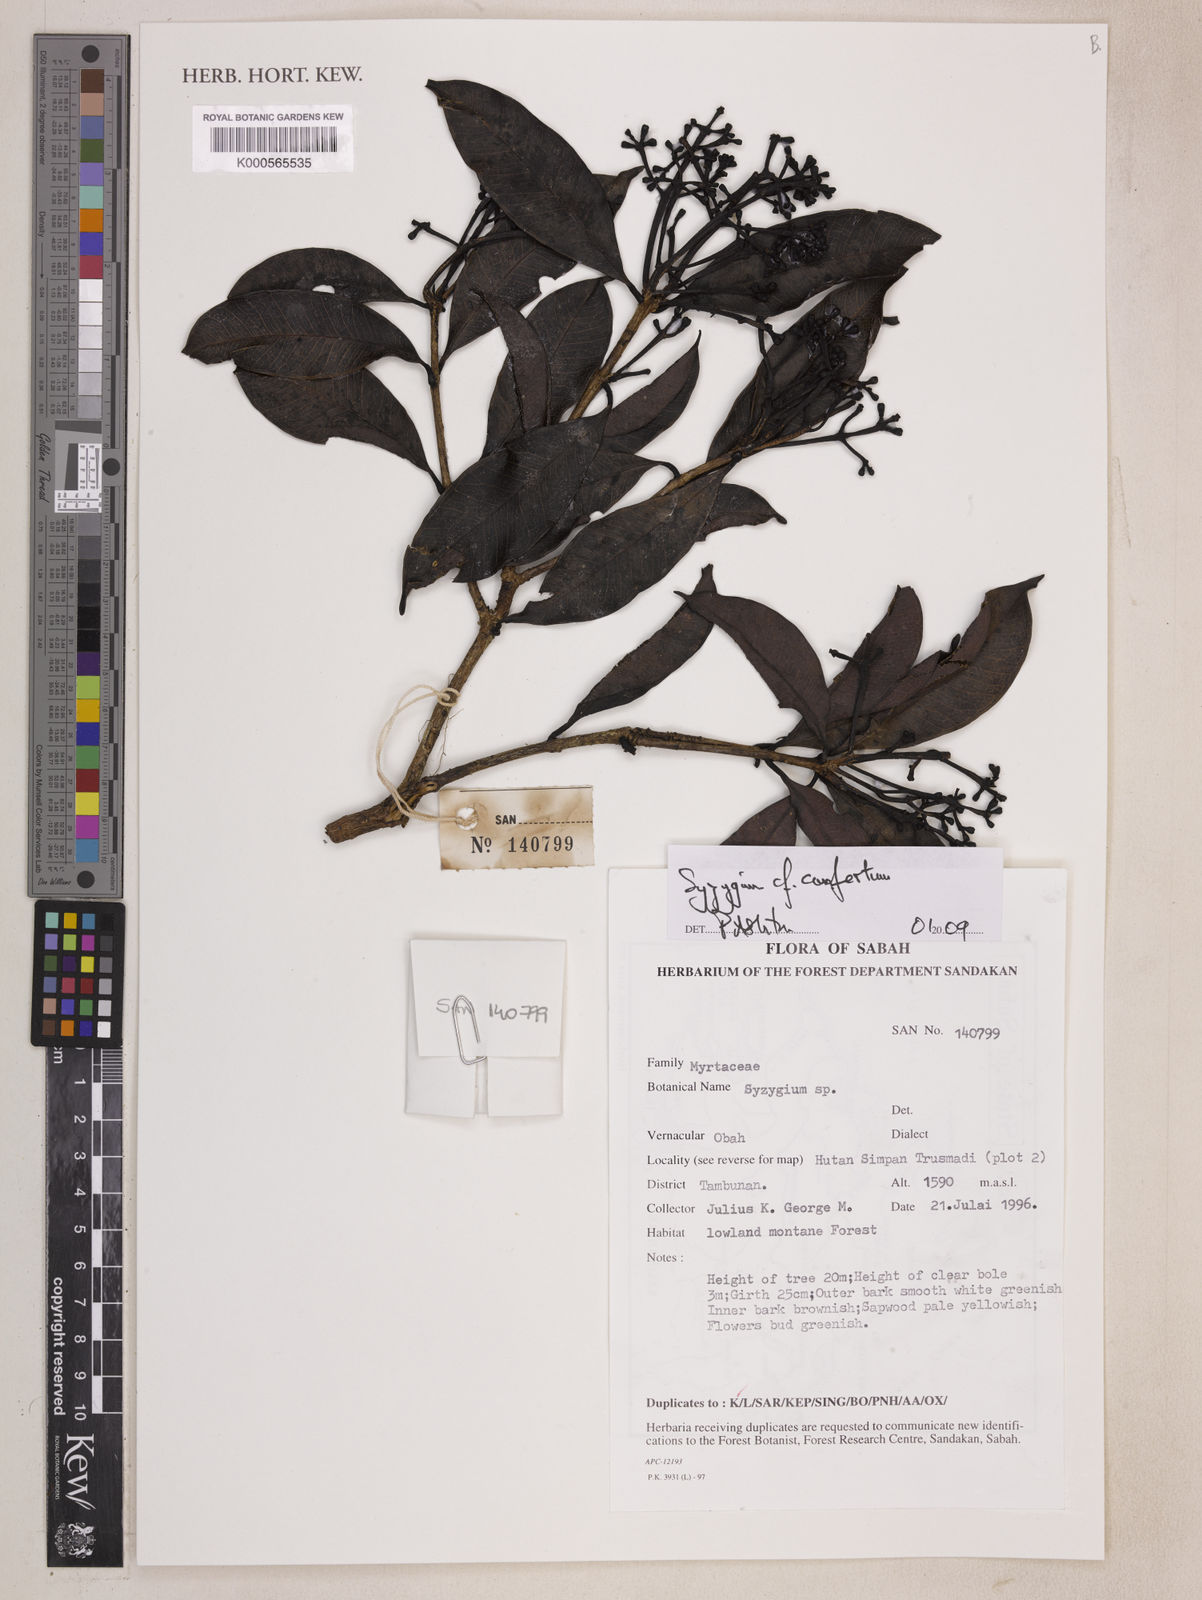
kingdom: Plantae
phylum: Tracheophyta
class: Magnoliopsida
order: Myrtales
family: Myrtaceae
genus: Syzygium
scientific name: Syzygium confertum
